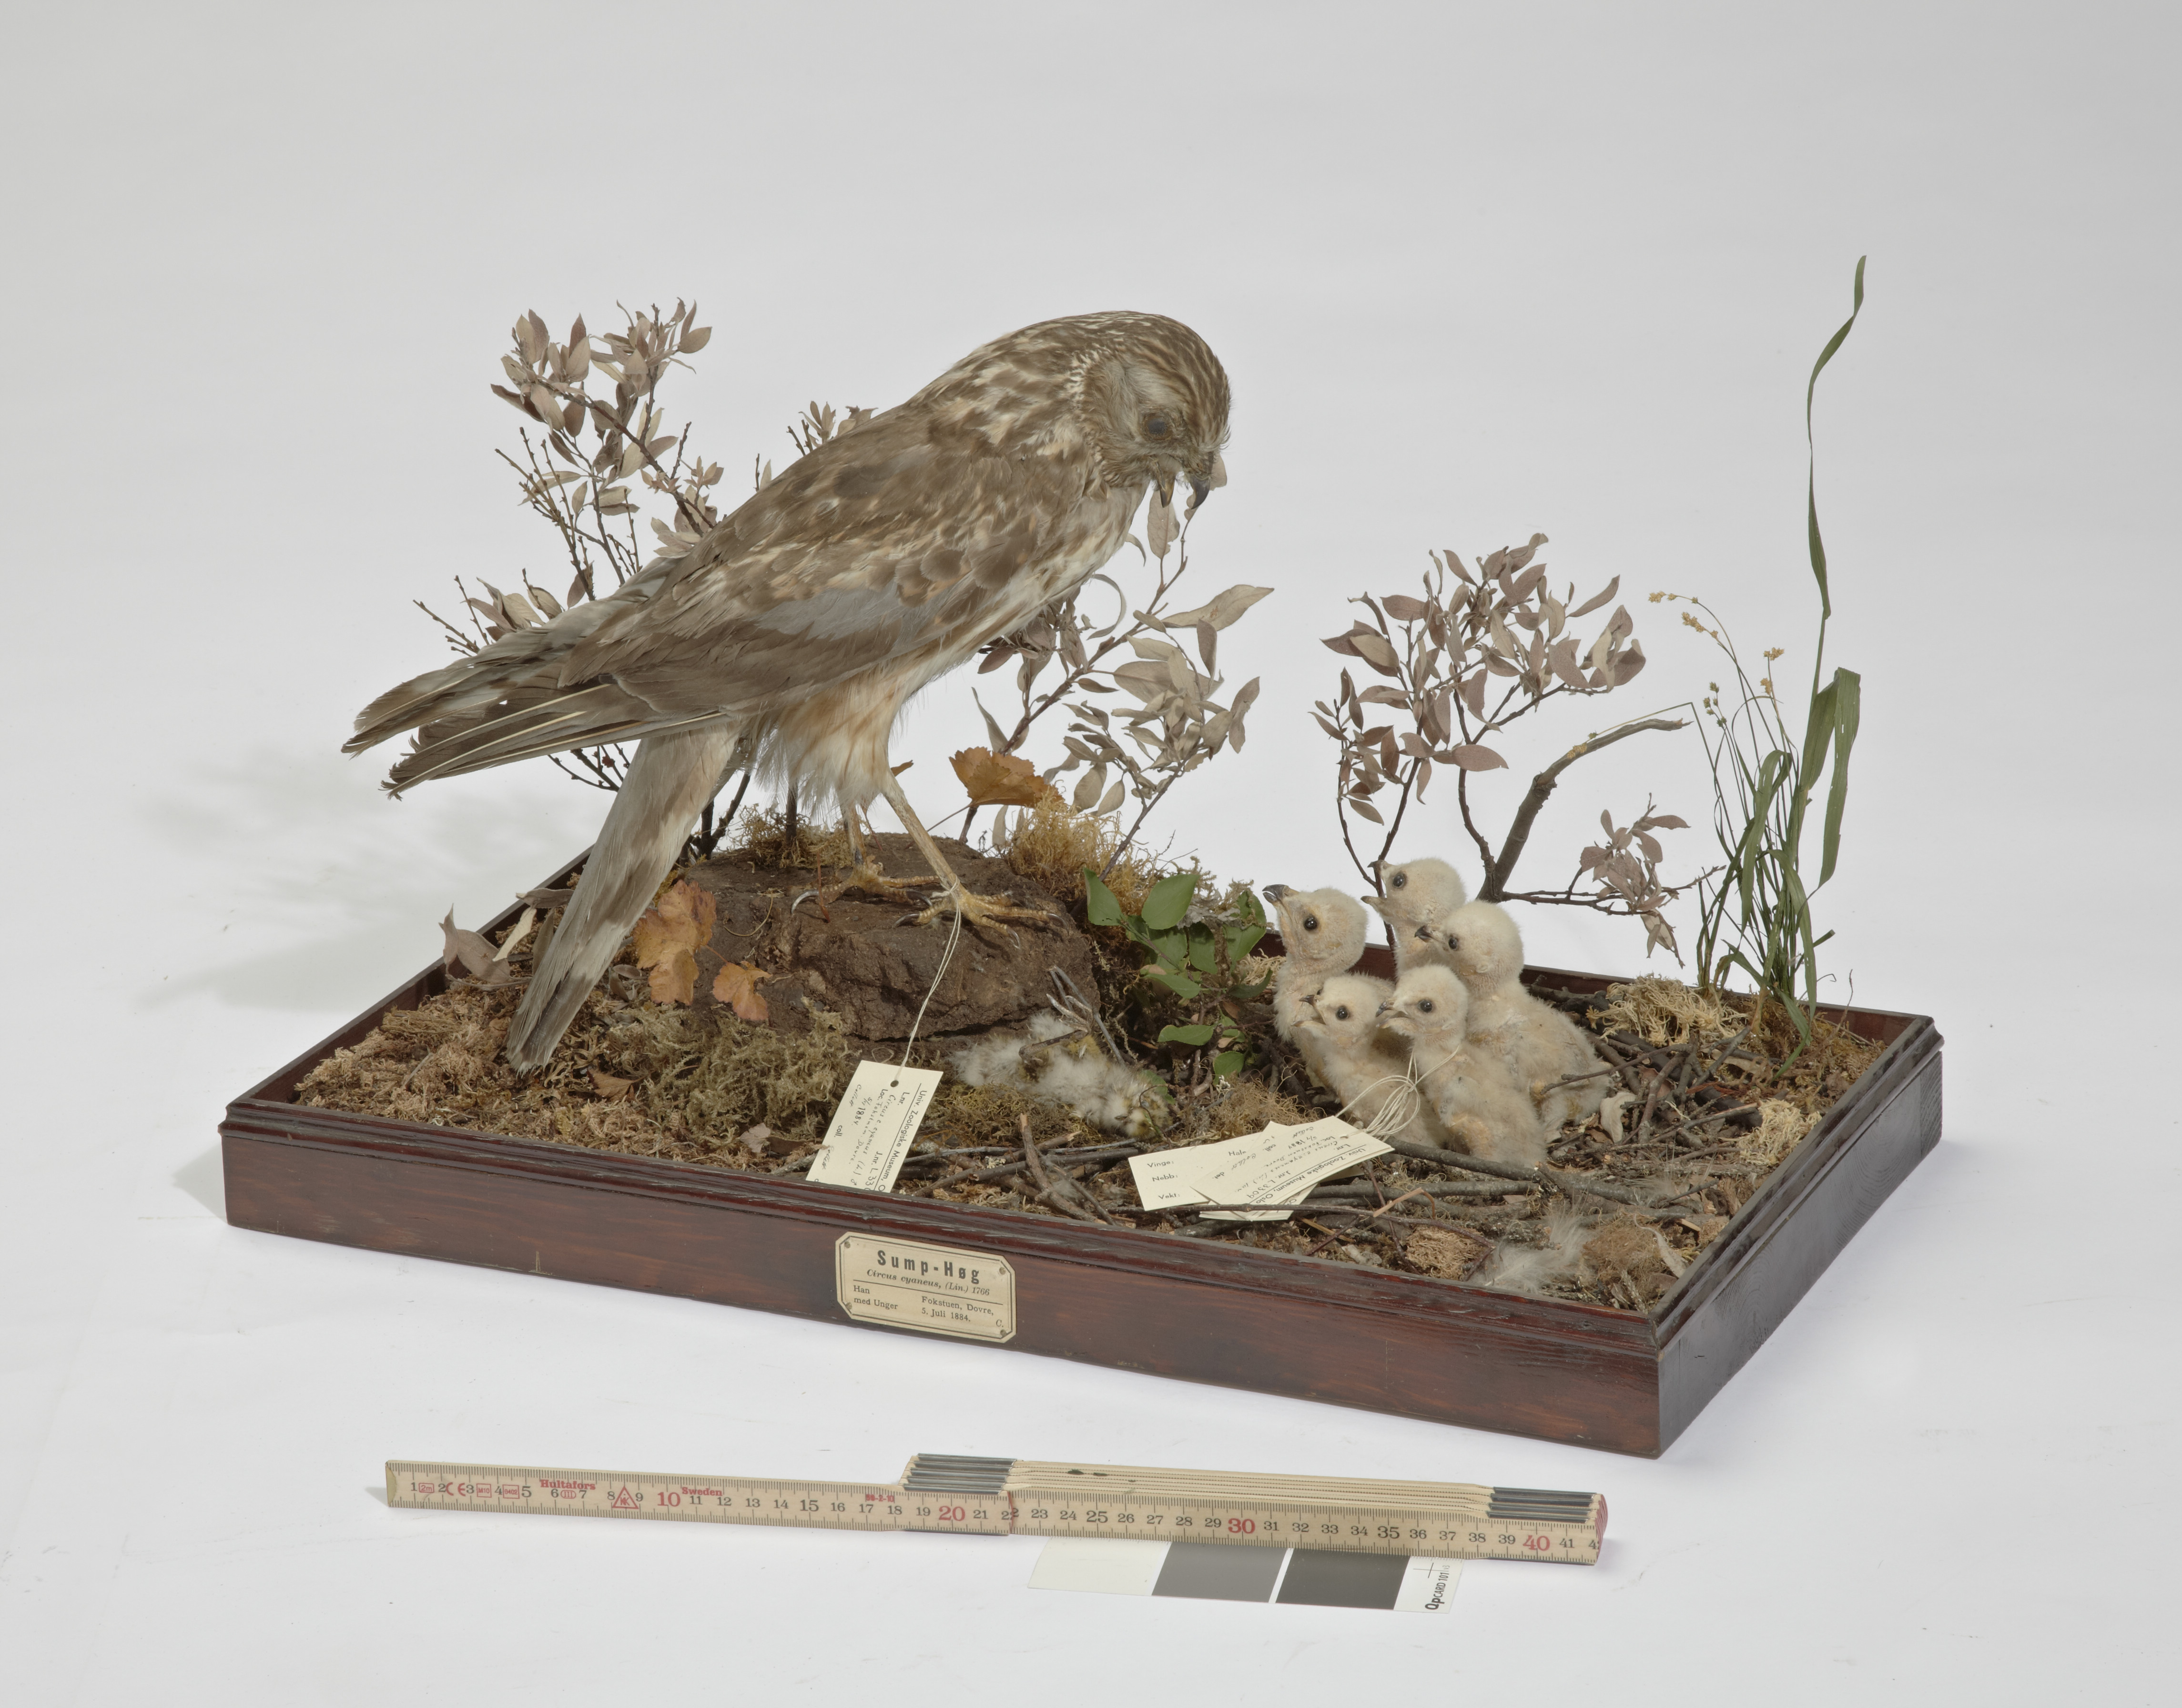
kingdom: Animalia
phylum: Chordata
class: Aves
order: Accipitriformes
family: Accipitridae
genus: Circus
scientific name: Circus cyaneus
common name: Hen harrier
